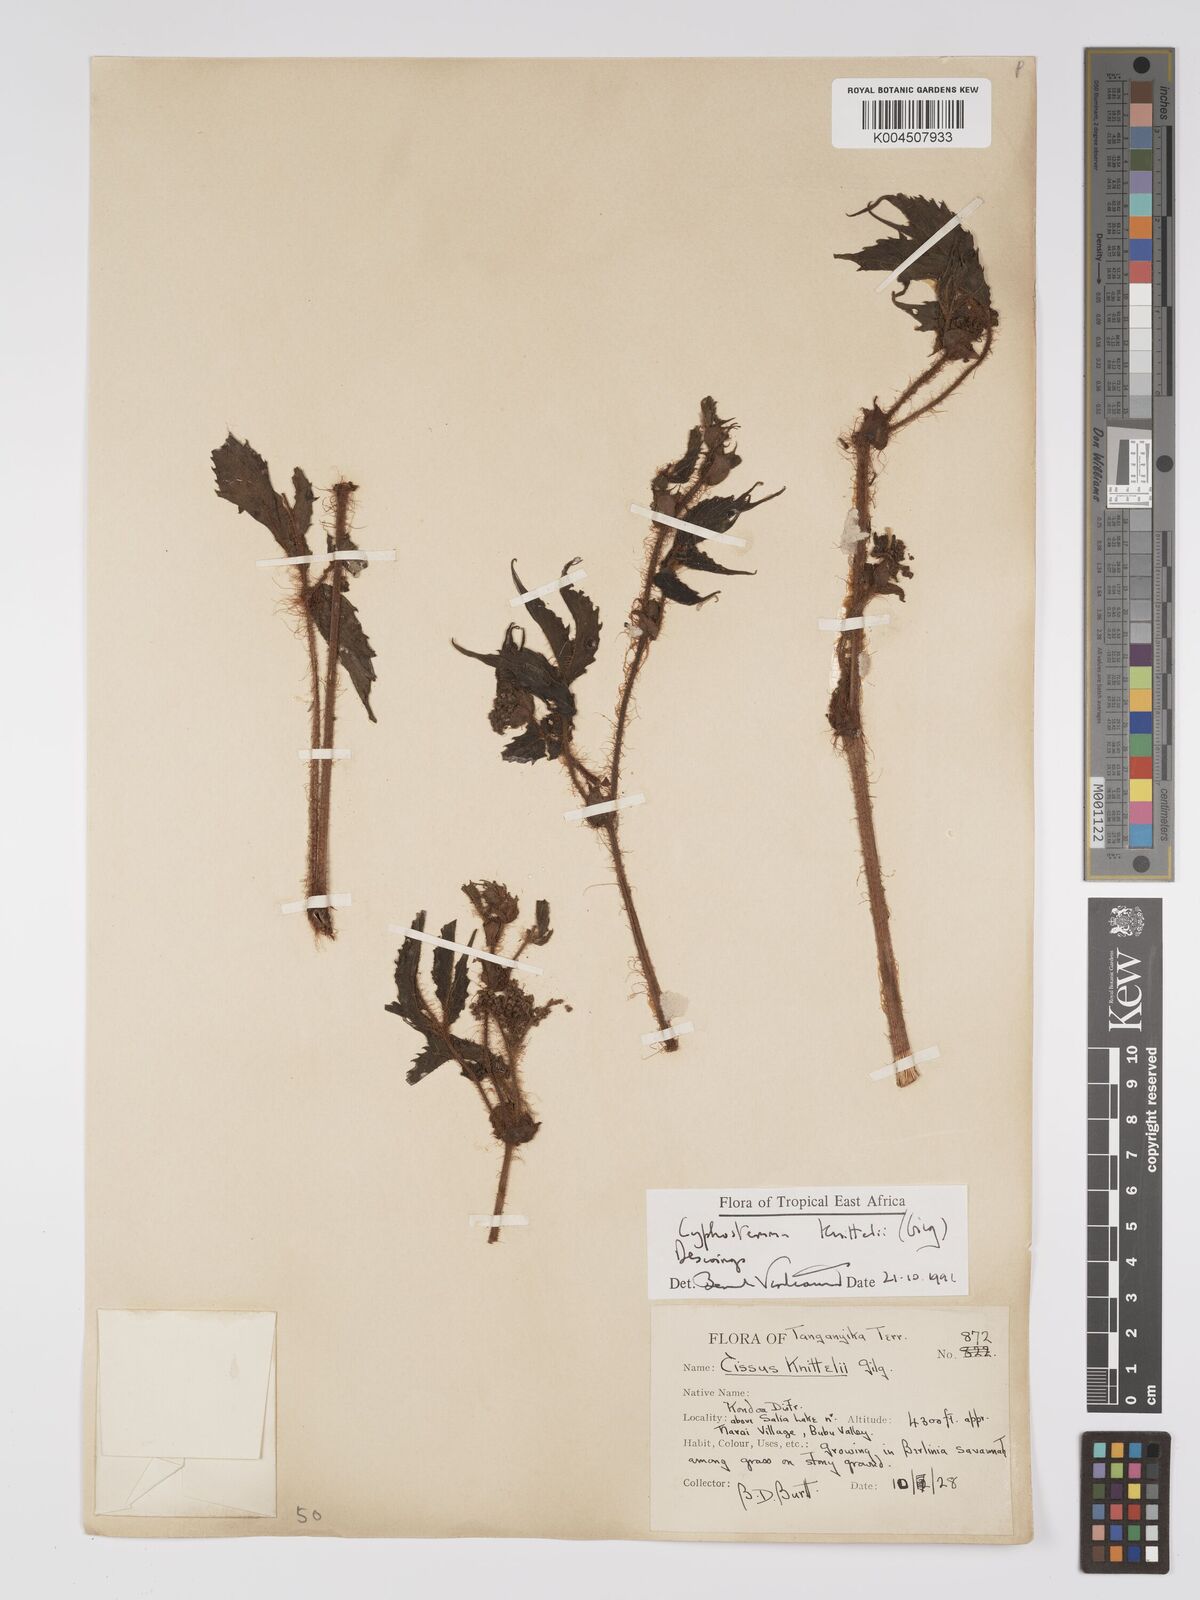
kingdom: Plantae
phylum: Tracheophyta
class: Magnoliopsida
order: Vitales
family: Vitaceae
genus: Cyphostemma
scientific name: Cyphostemma knittelii
